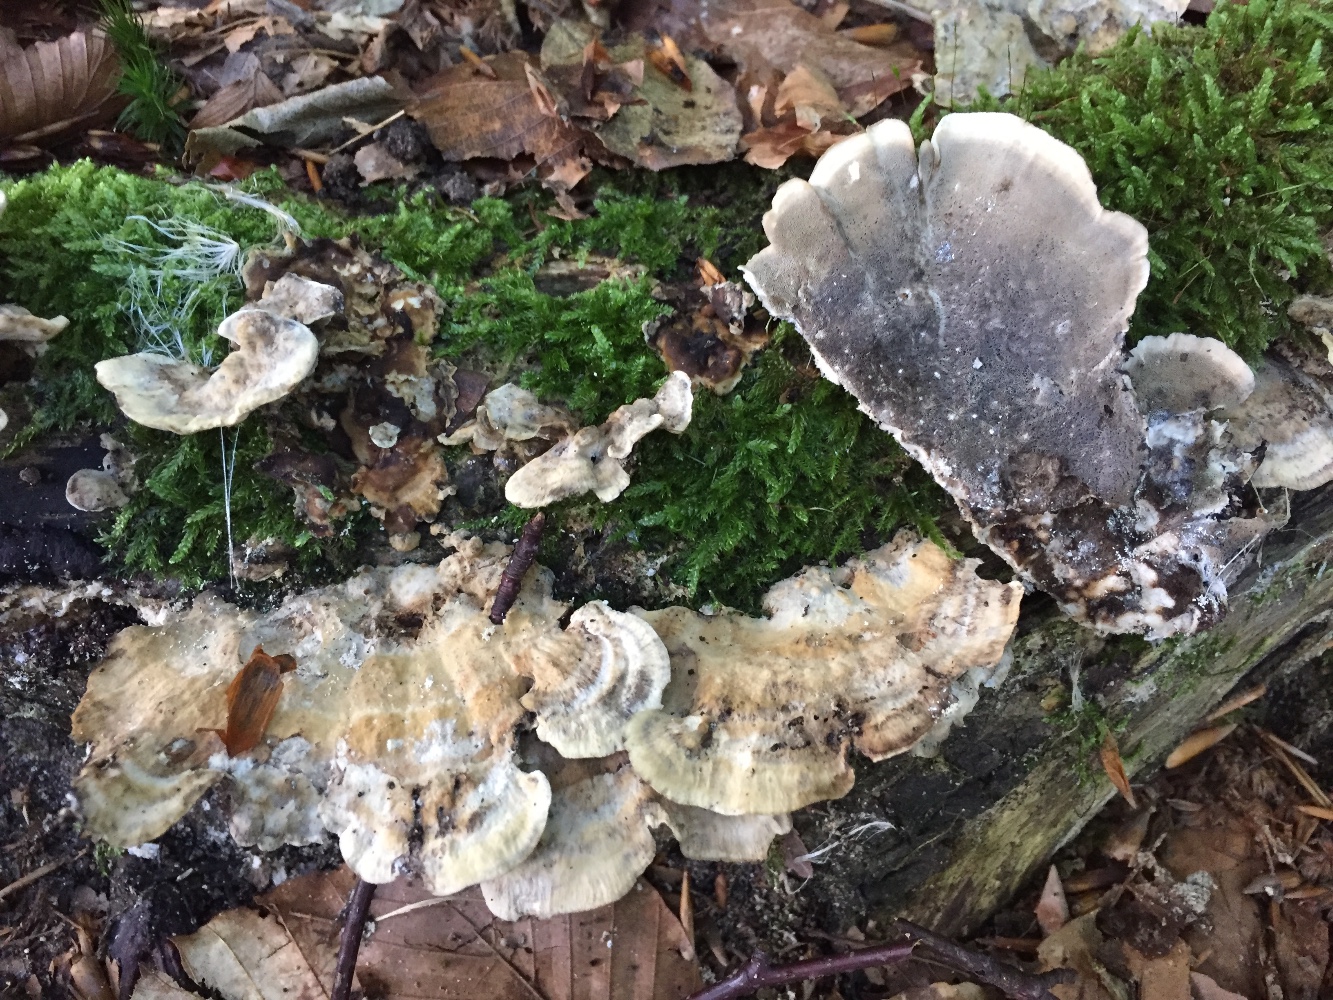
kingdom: Fungi
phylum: Basidiomycota
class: Agaricomycetes
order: Polyporales
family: Phanerochaetaceae
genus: Bjerkandera
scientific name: Bjerkandera adusta
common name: sveden sodporesvamp
